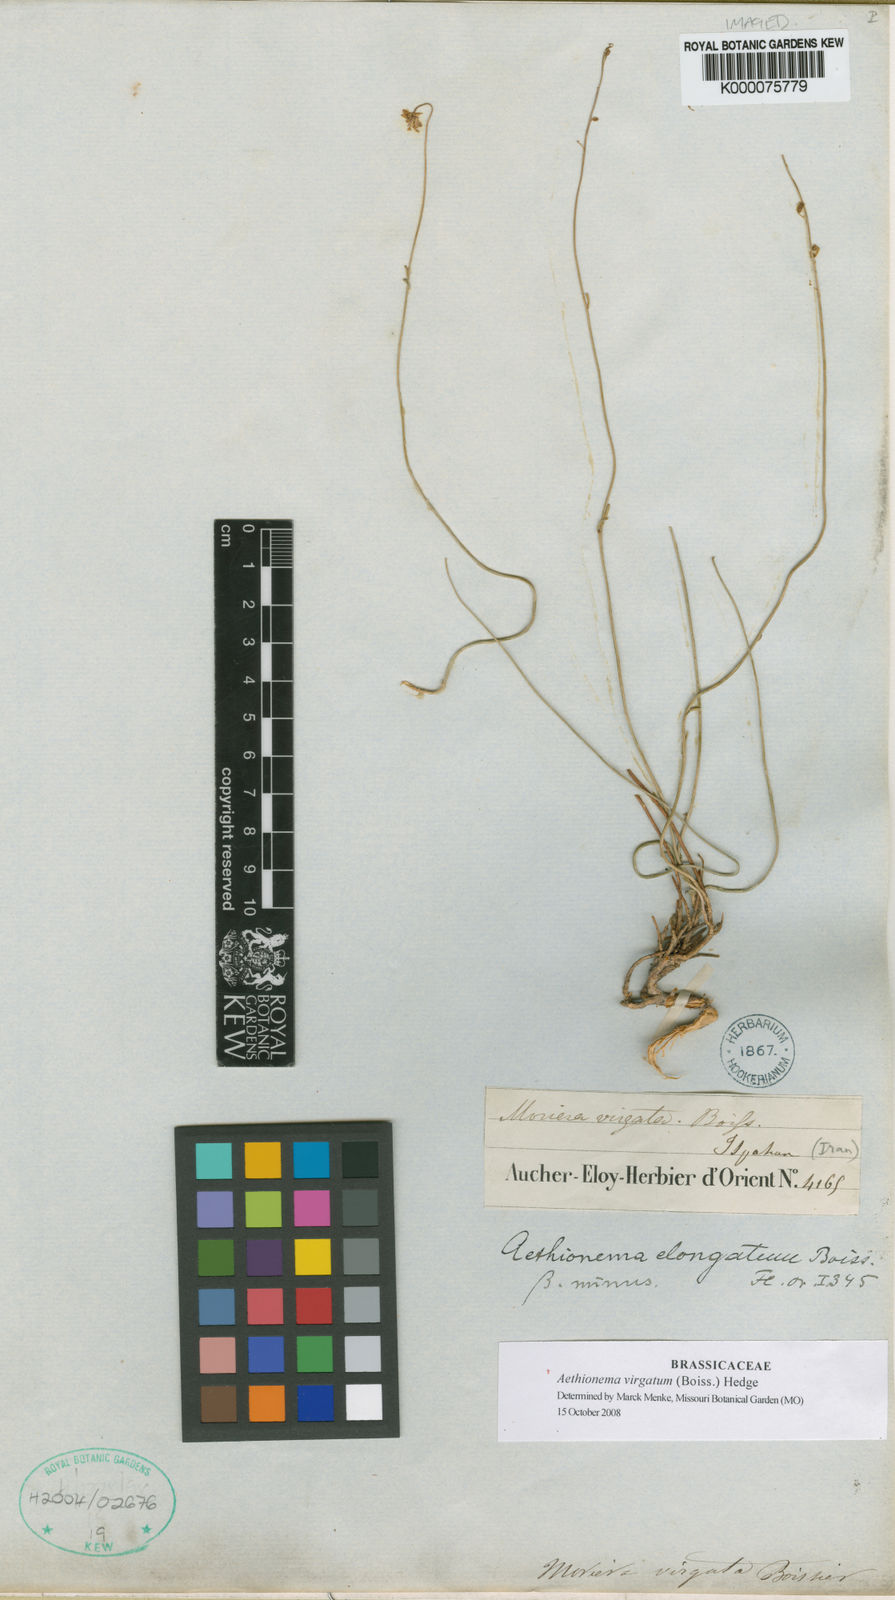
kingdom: Plantae
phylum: Tracheophyta
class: Magnoliopsida
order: Brassicales
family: Brassicaceae
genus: Aethionema
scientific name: Aethionema virgatum
